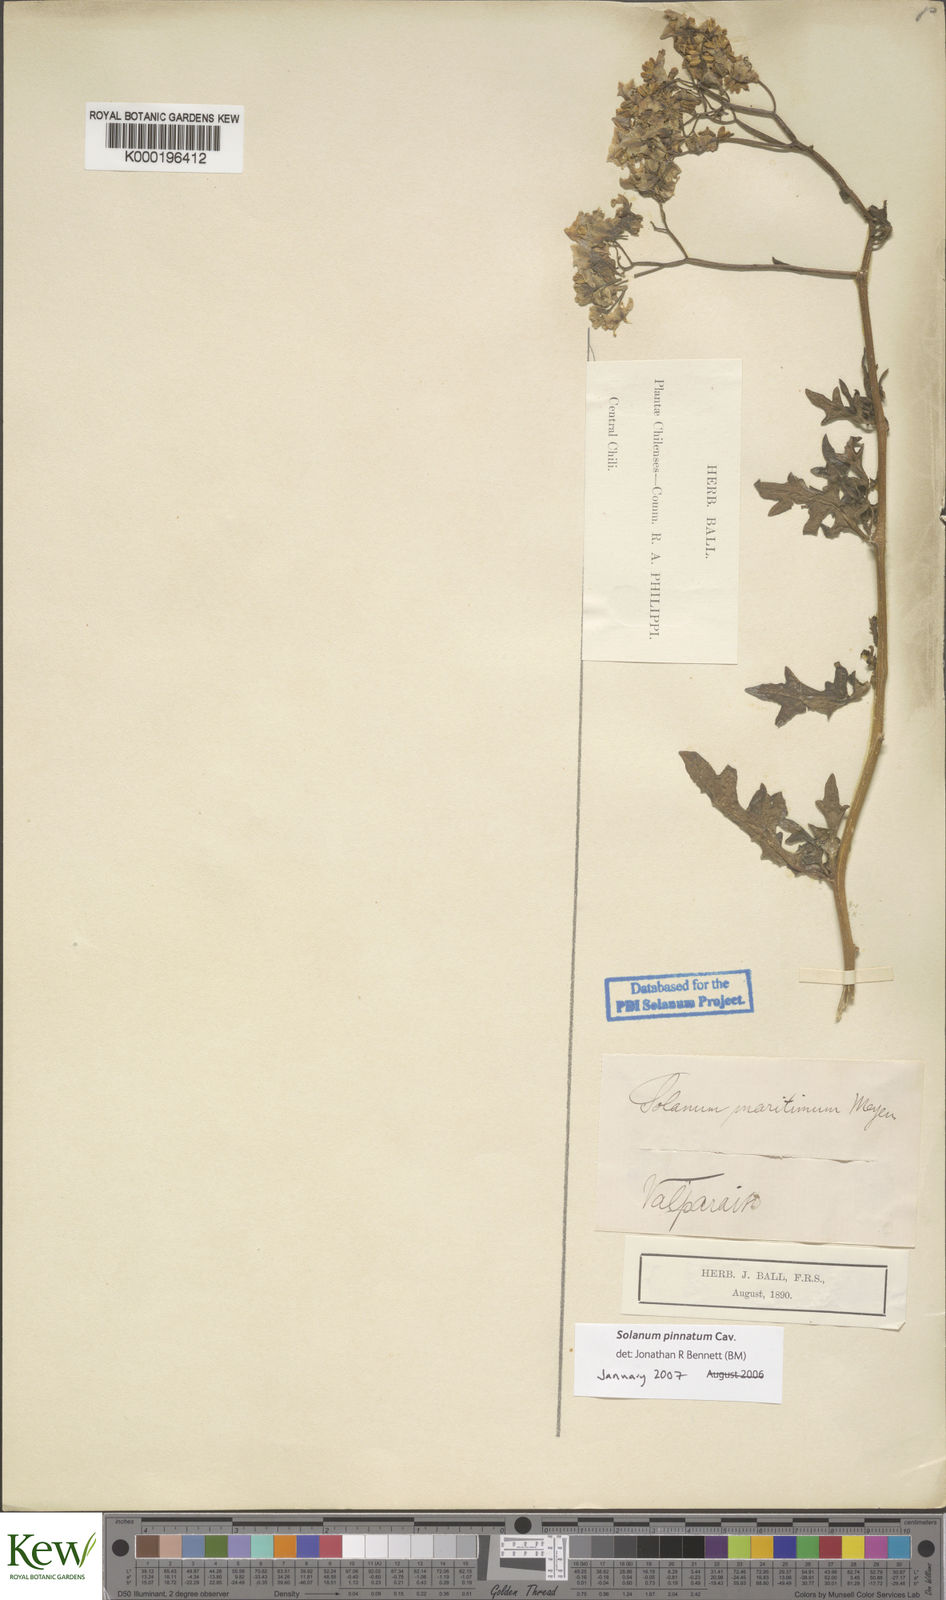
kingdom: Plantae
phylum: Tracheophyta
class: Magnoliopsida
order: Solanales
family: Solanaceae
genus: Solanum
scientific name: Solanum pinnatum
